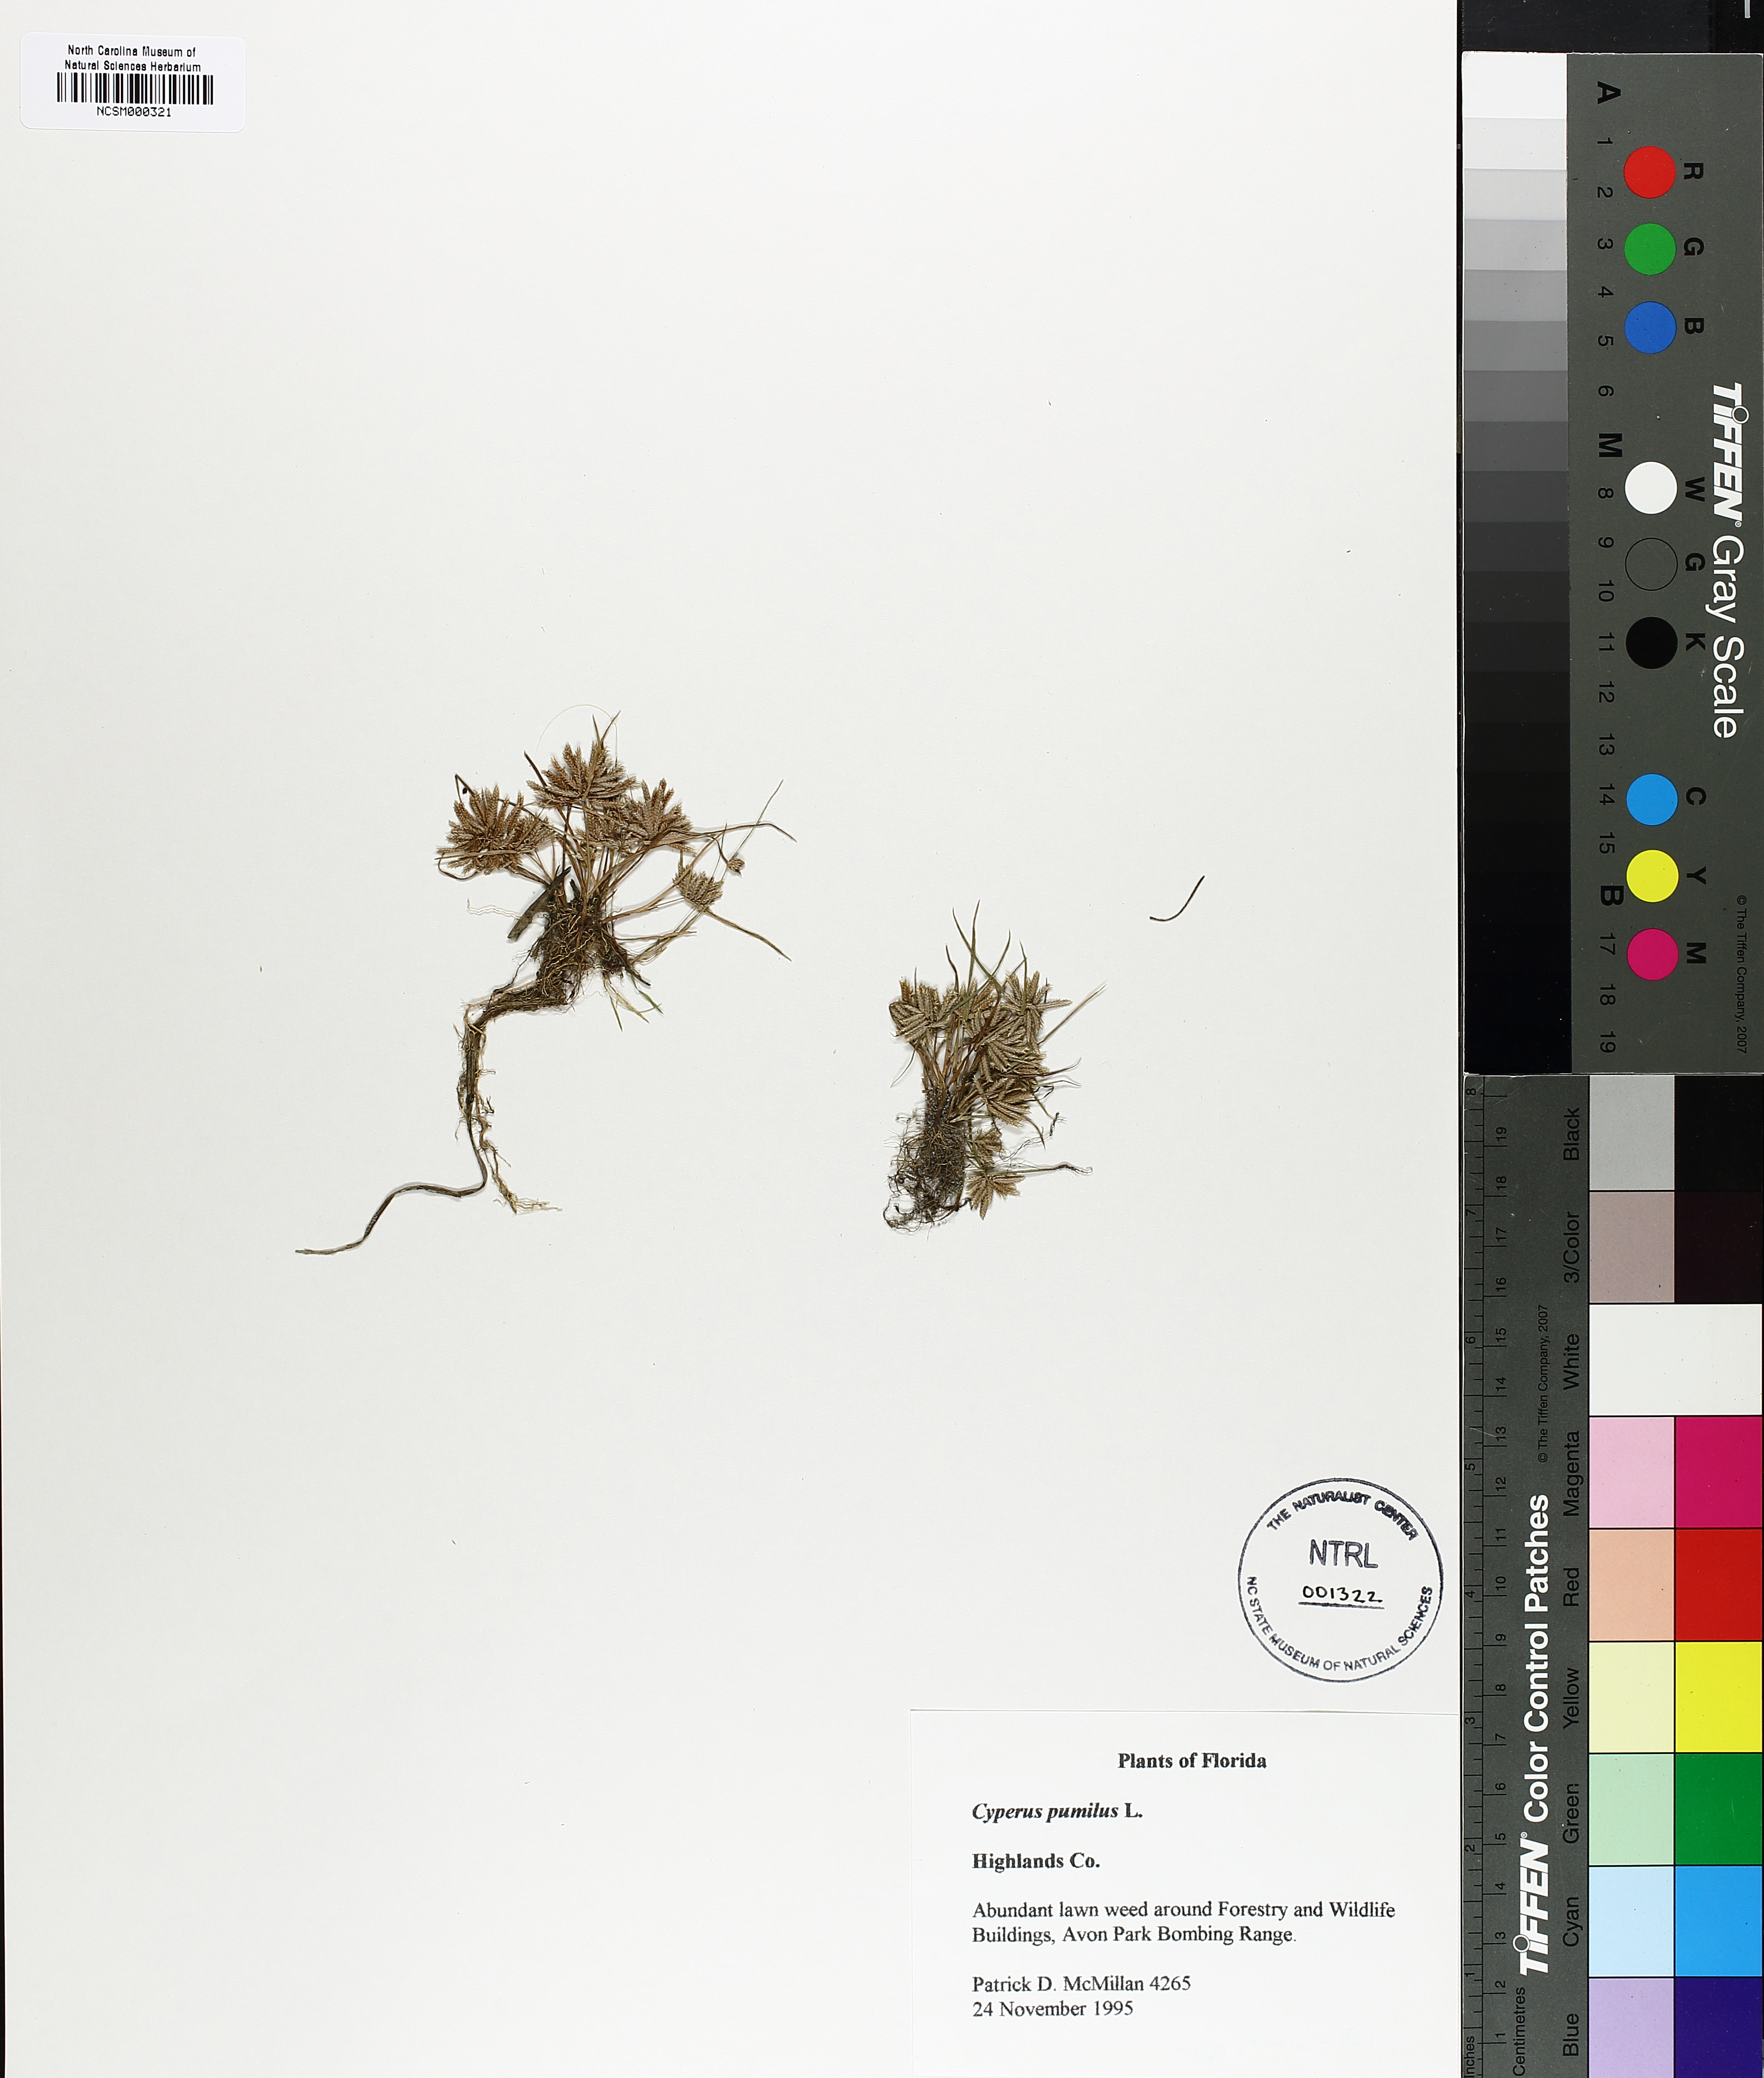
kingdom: Plantae
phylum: Tracheophyta
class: Liliopsida
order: Poales
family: Cyperaceae
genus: Cyperus
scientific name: Cyperus pumilus
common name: Low flatsedge
